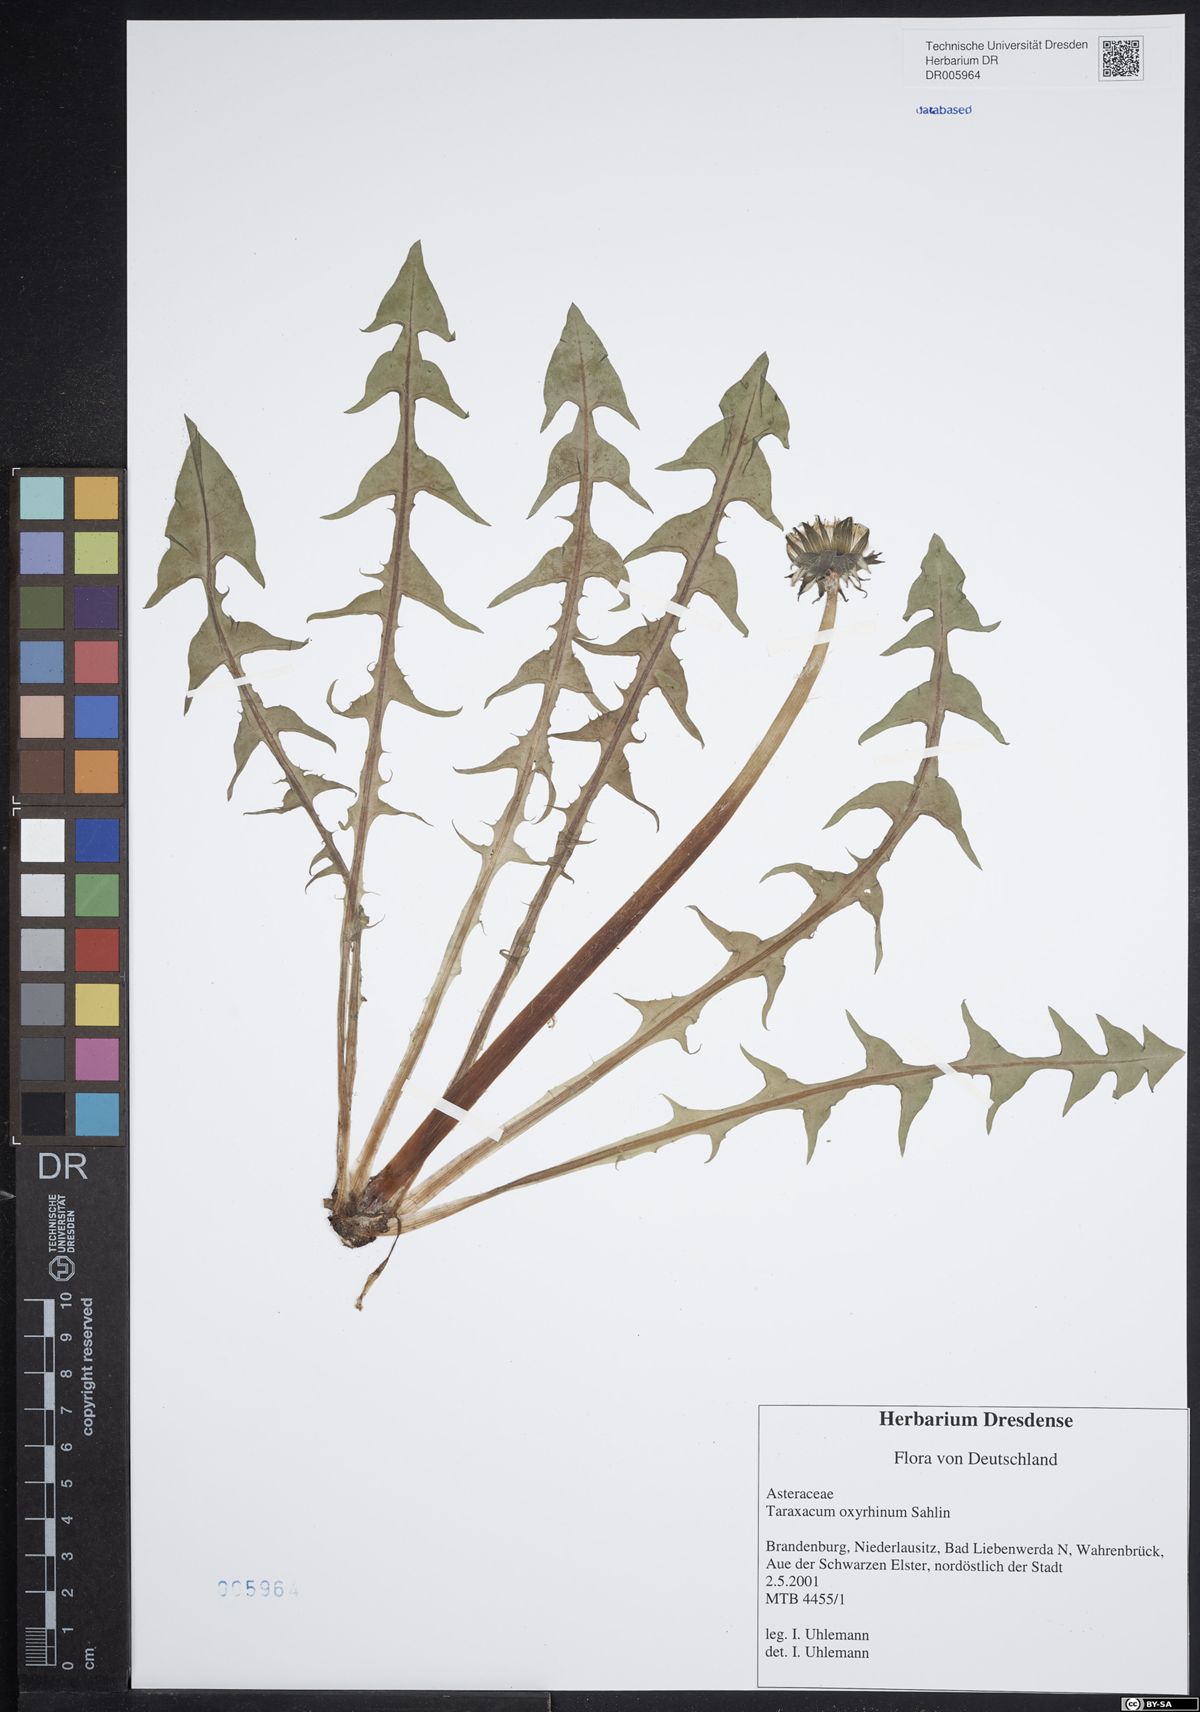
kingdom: Plantae
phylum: Tracheophyta
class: Magnoliopsida
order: Asterales
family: Asteraceae
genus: Taraxacum
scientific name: Taraxacum oxyrrhinum
